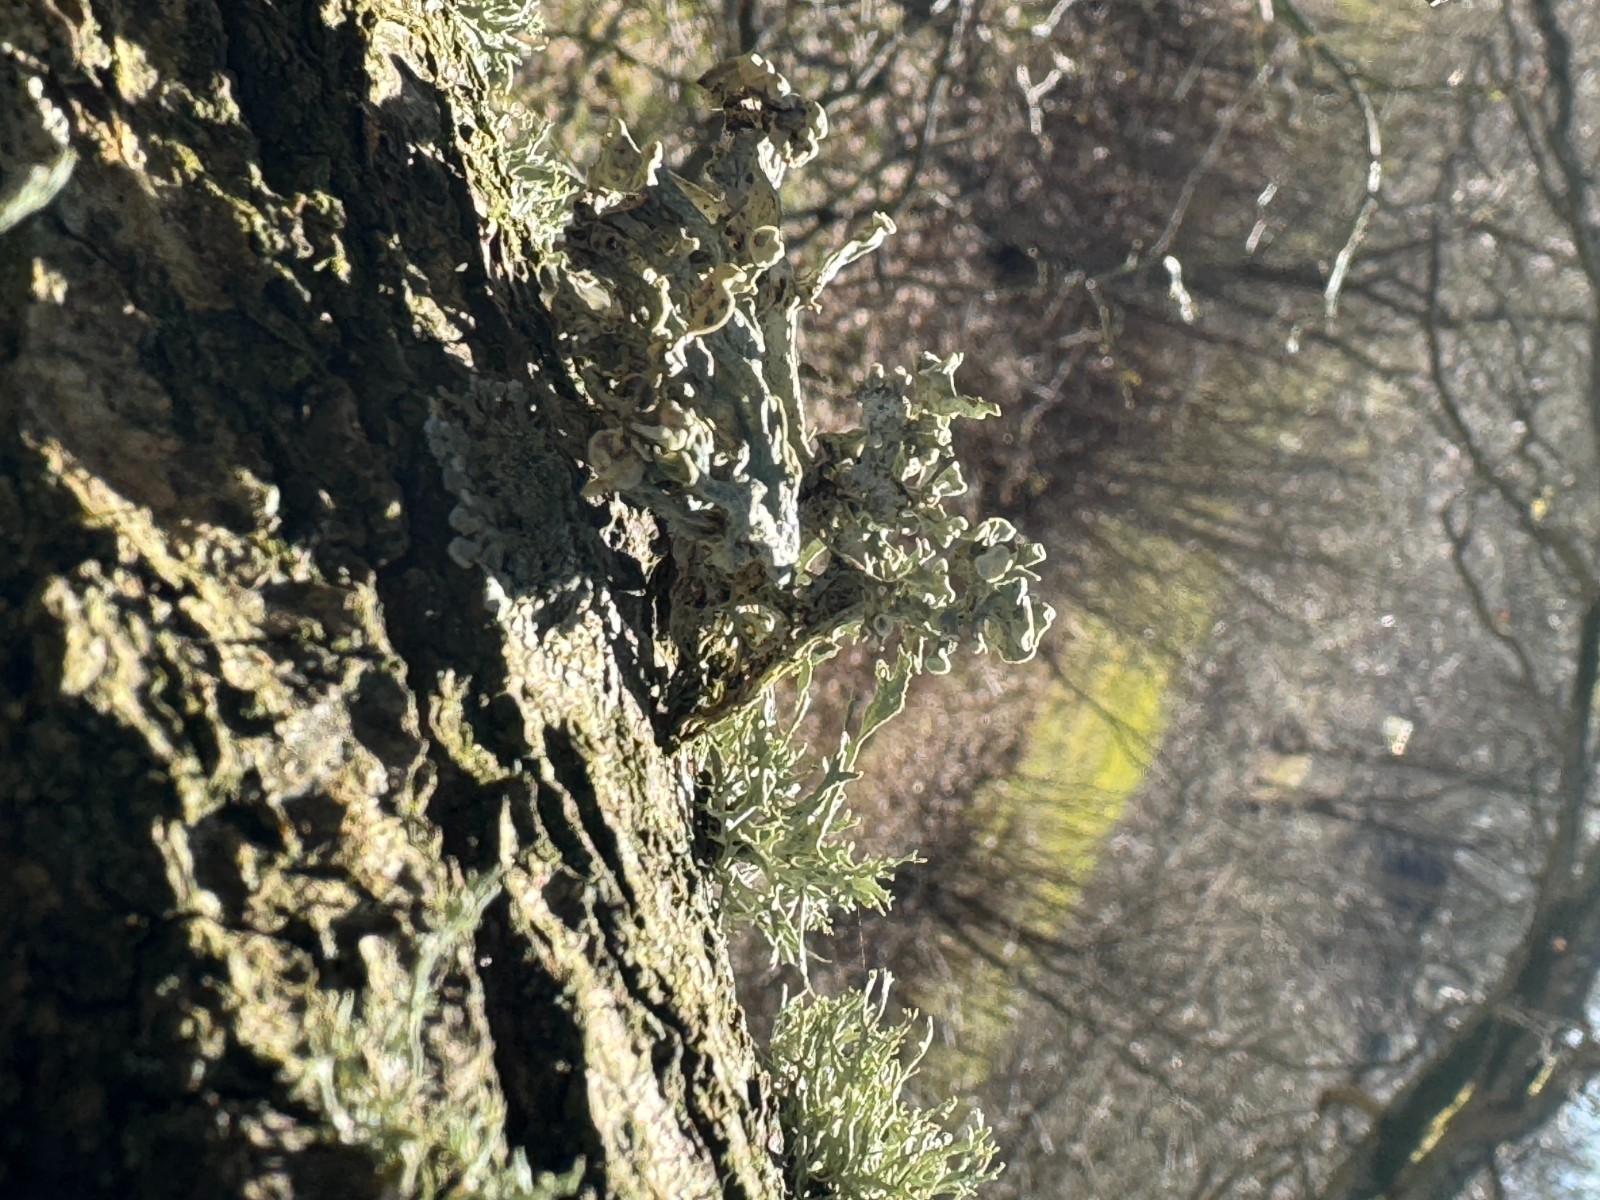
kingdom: Fungi
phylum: Ascomycota
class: Lecanoromycetes
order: Lecanorales
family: Ramalinaceae
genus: Ramalina
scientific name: Ramalina fastigiata
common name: tue-grenlav
